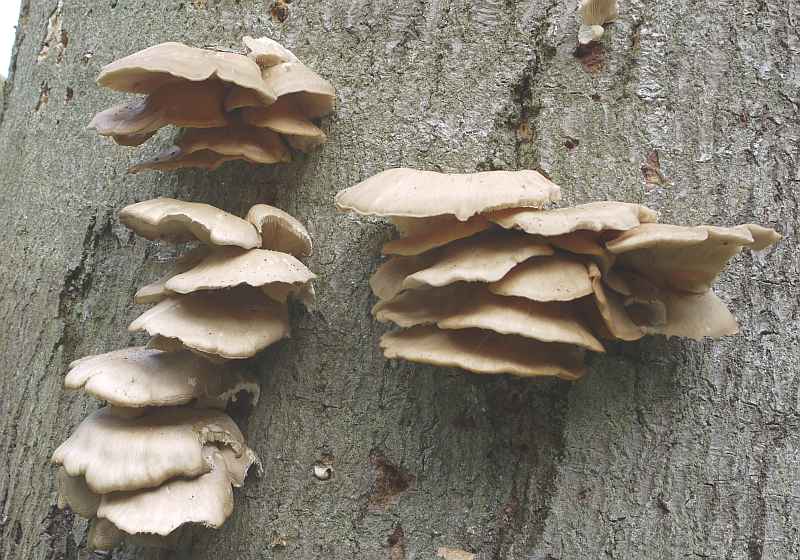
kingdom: Fungi
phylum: Basidiomycota
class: Agaricomycetes
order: Agaricales
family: Pleurotaceae
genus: Pleurotus
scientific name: Pleurotus pulmonarius
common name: sommer-østershat
